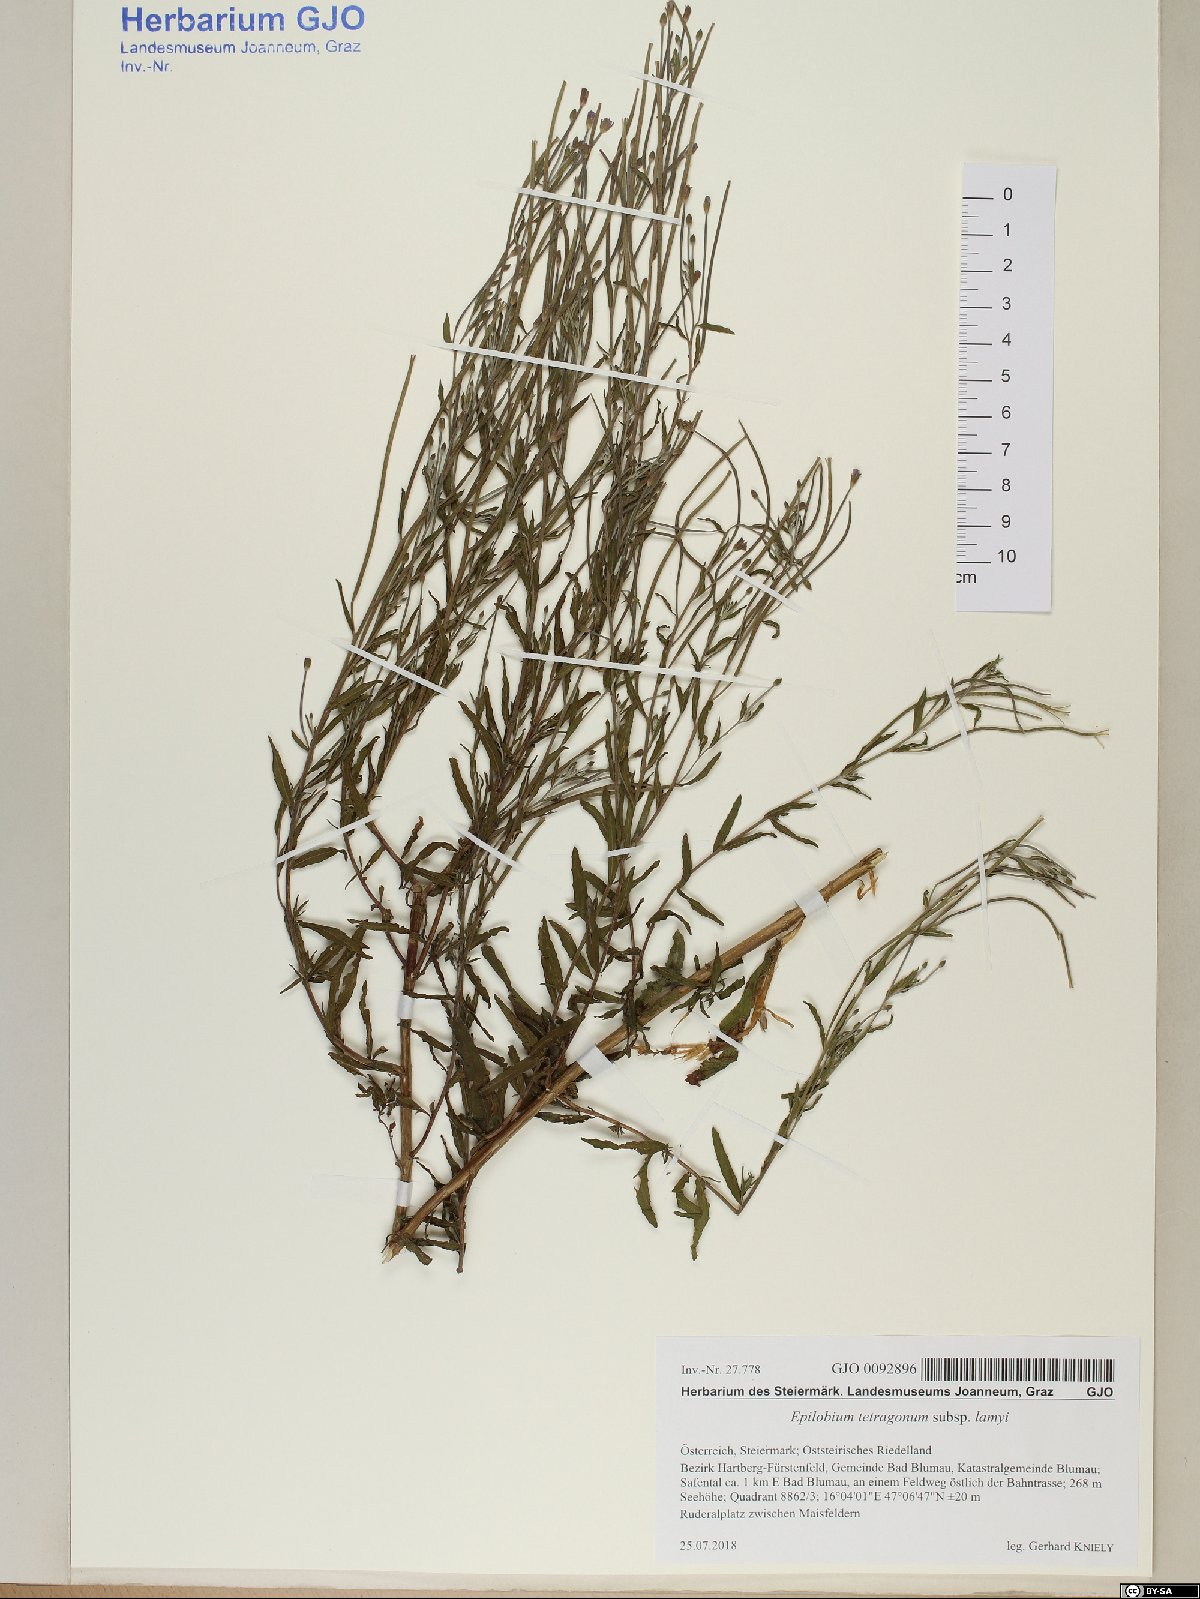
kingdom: Plantae
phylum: Tracheophyta
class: Magnoliopsida
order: Myrtales
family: Onagraceae
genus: Epilobium
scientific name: Epilobium lamyi
